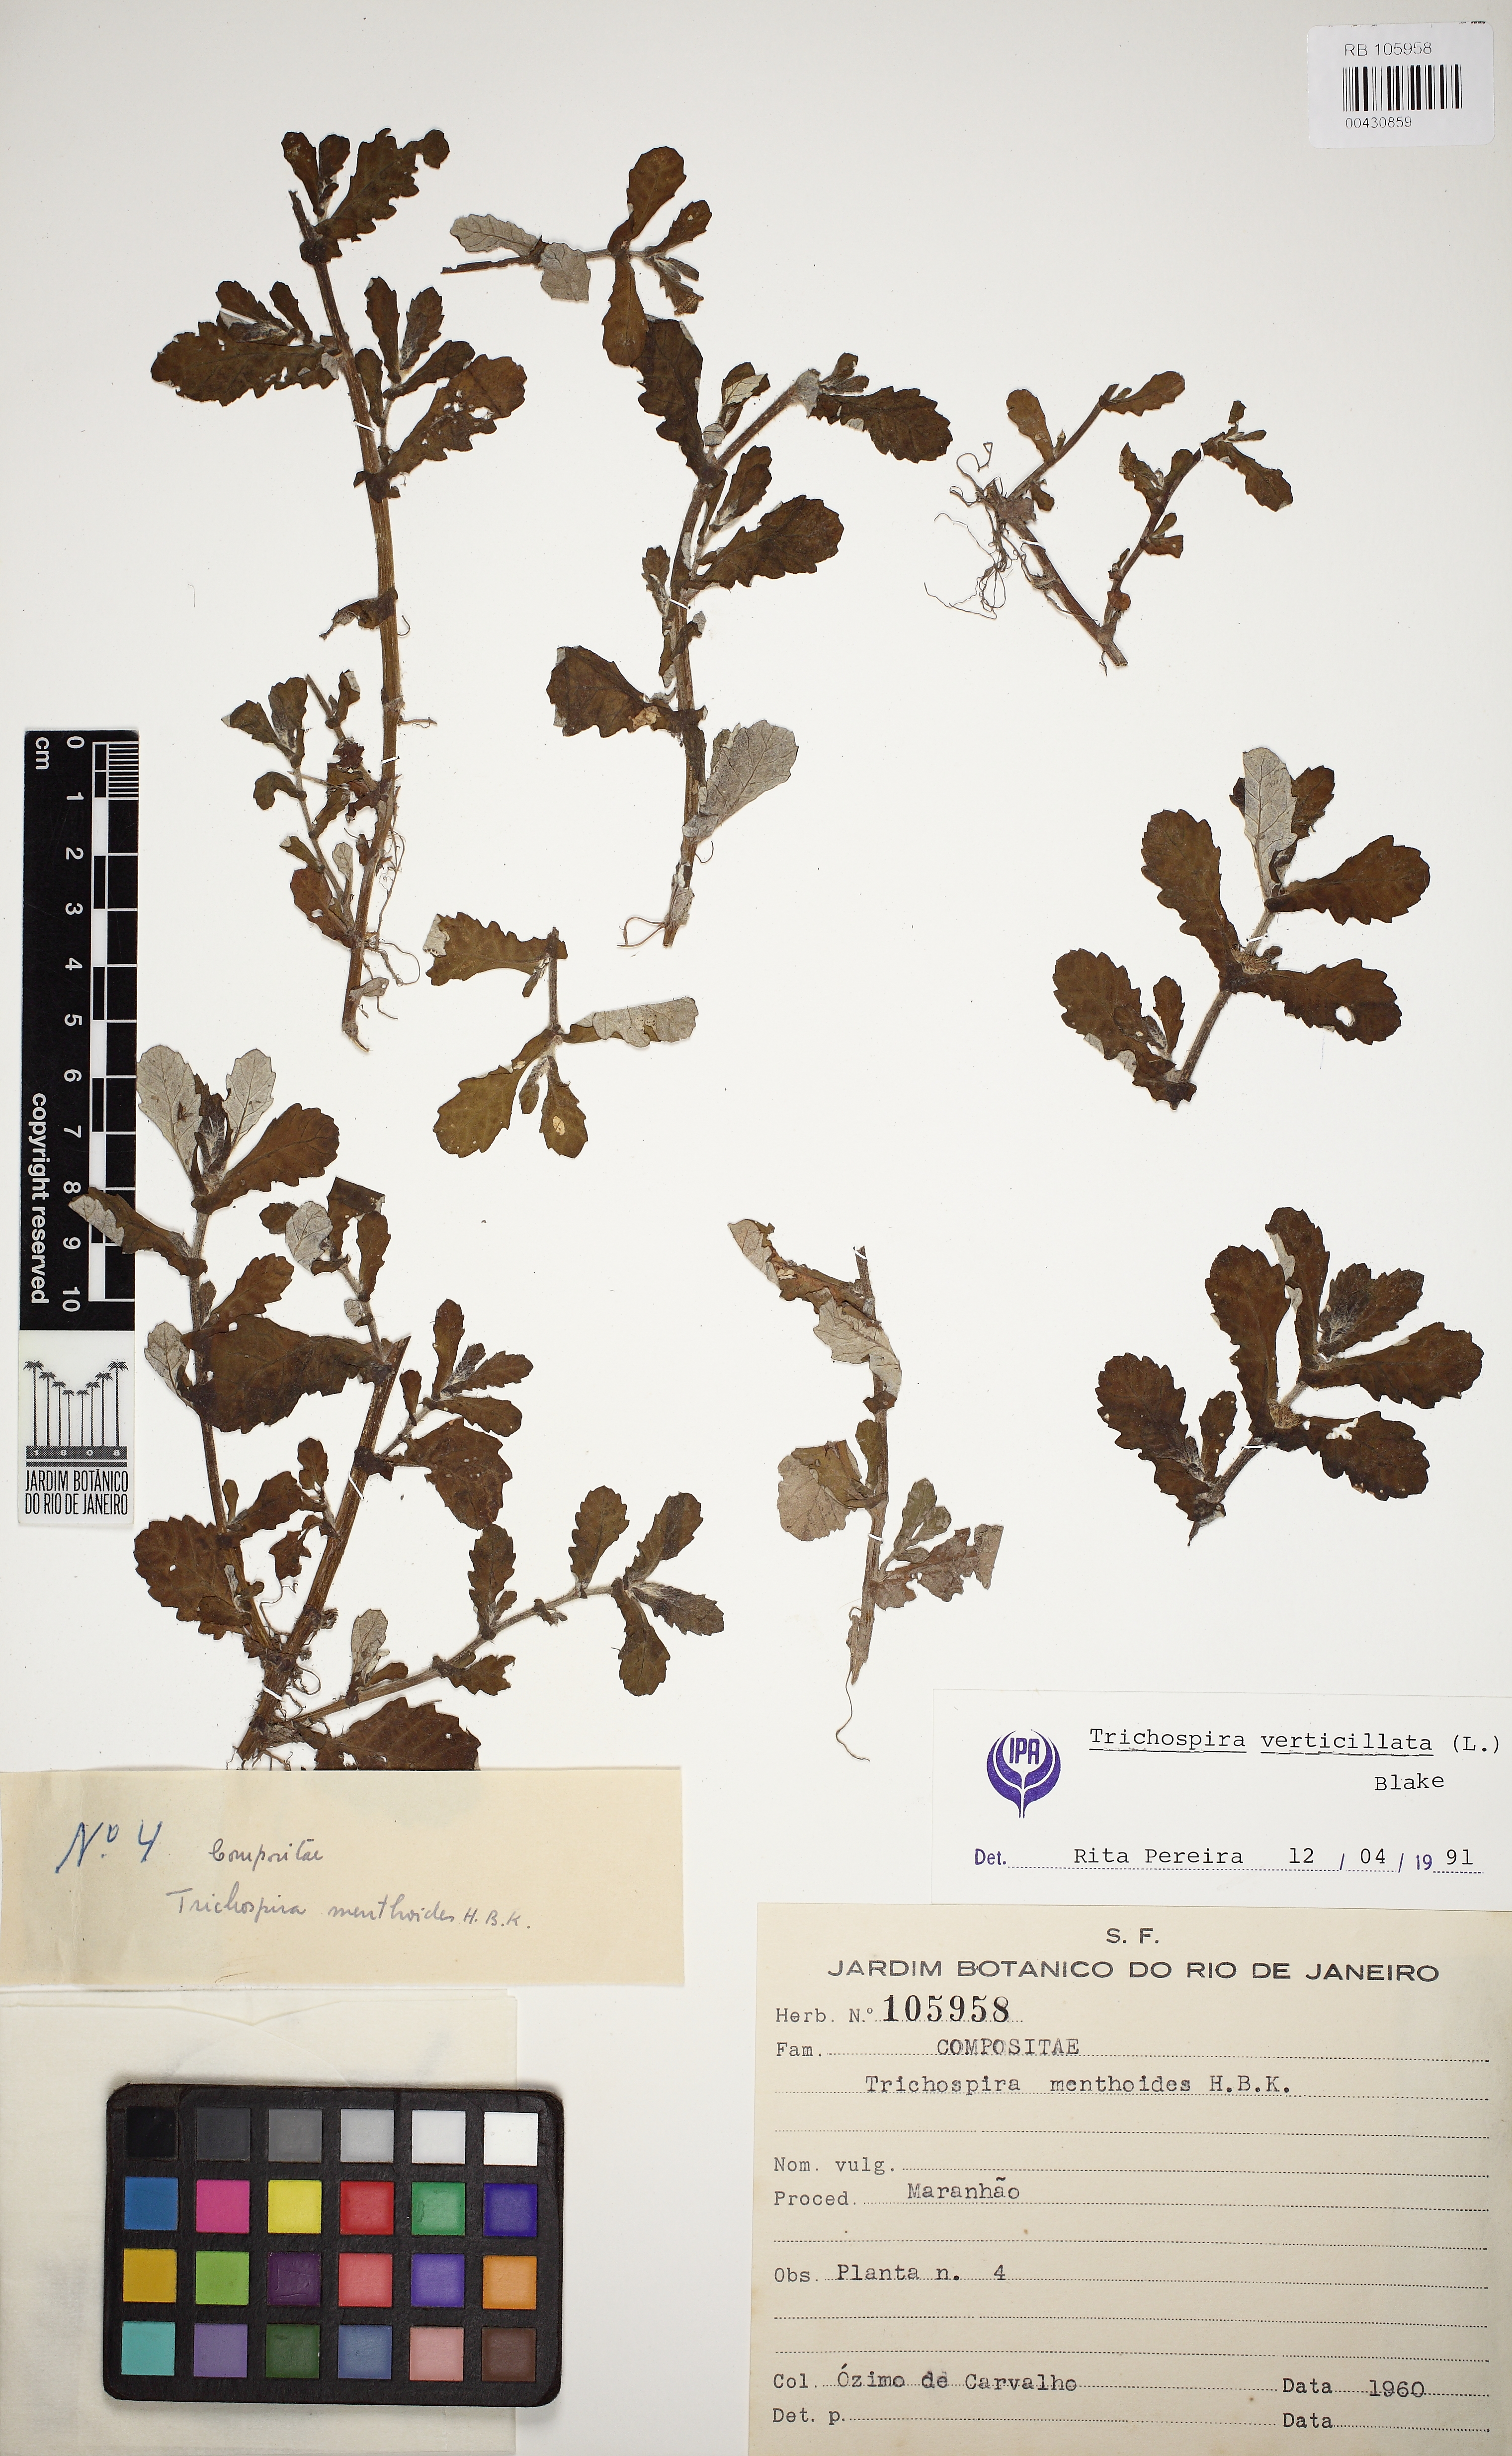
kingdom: Chromista
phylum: Ciliophora
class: Kinetofragminophora
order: Trichostomatida
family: Trichospiridae
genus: Trichospira
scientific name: Trichospira verticillata
